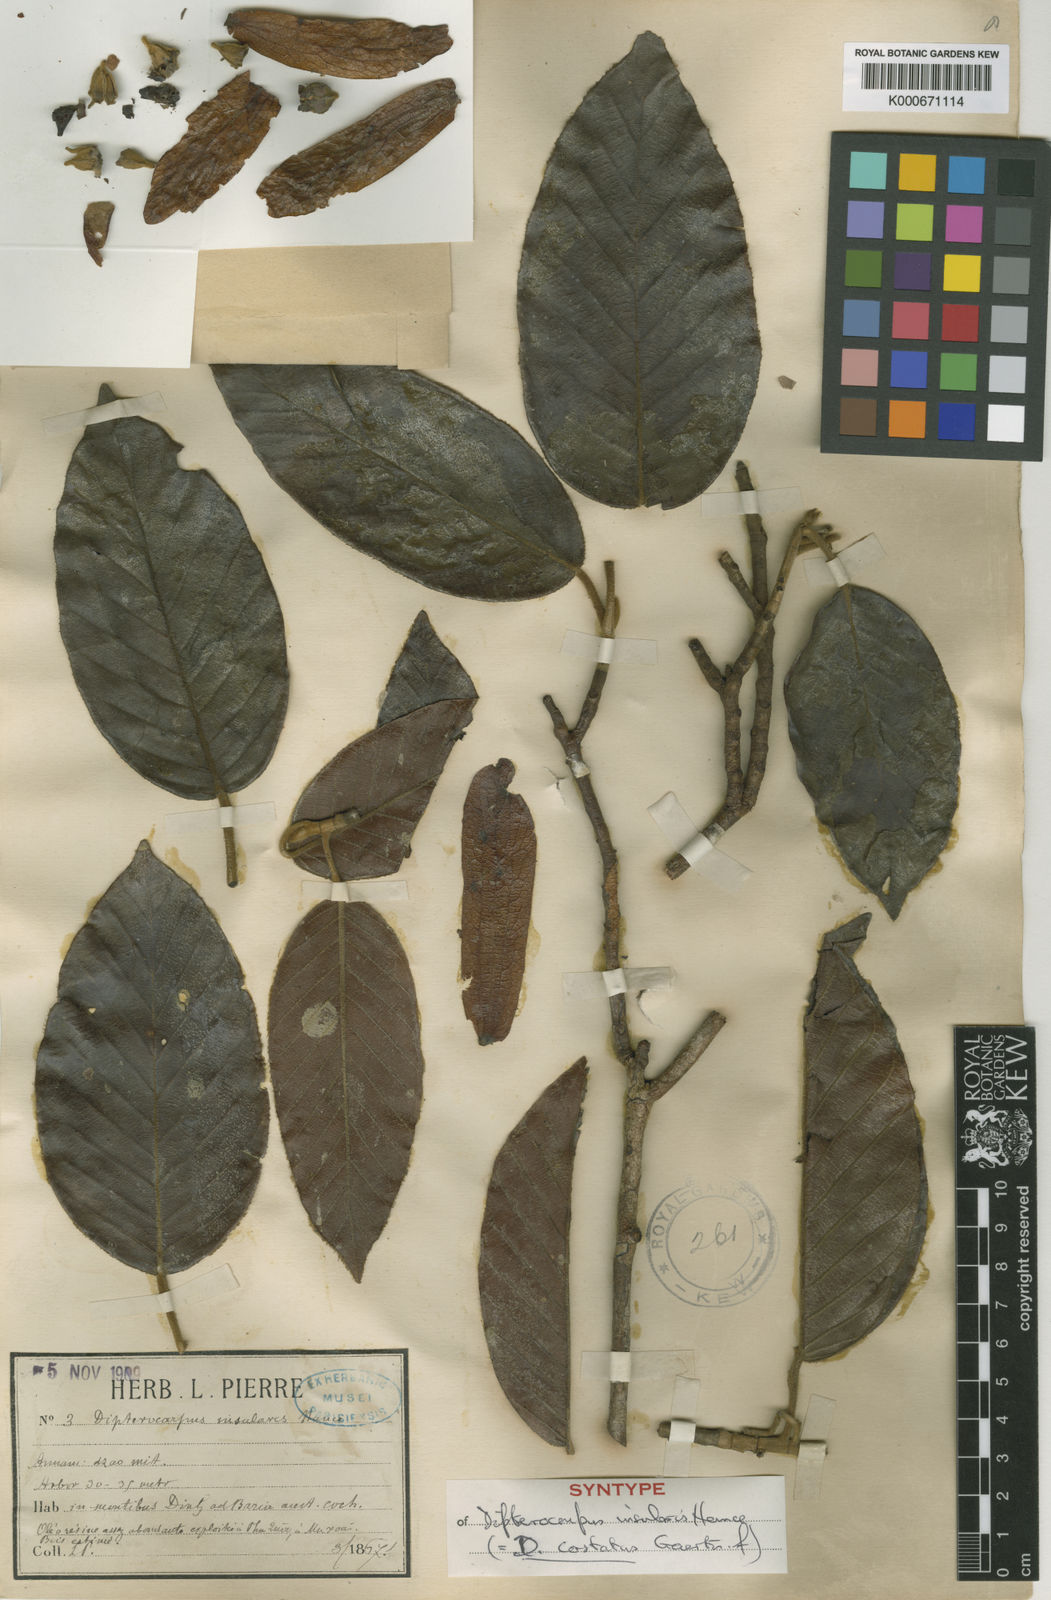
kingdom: Plantae
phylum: Tracheophyta
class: Magnoliopsida
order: Malvales
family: Dipterocarpaceae
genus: Dipterocarpus
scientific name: Dipterocarpus costatus
